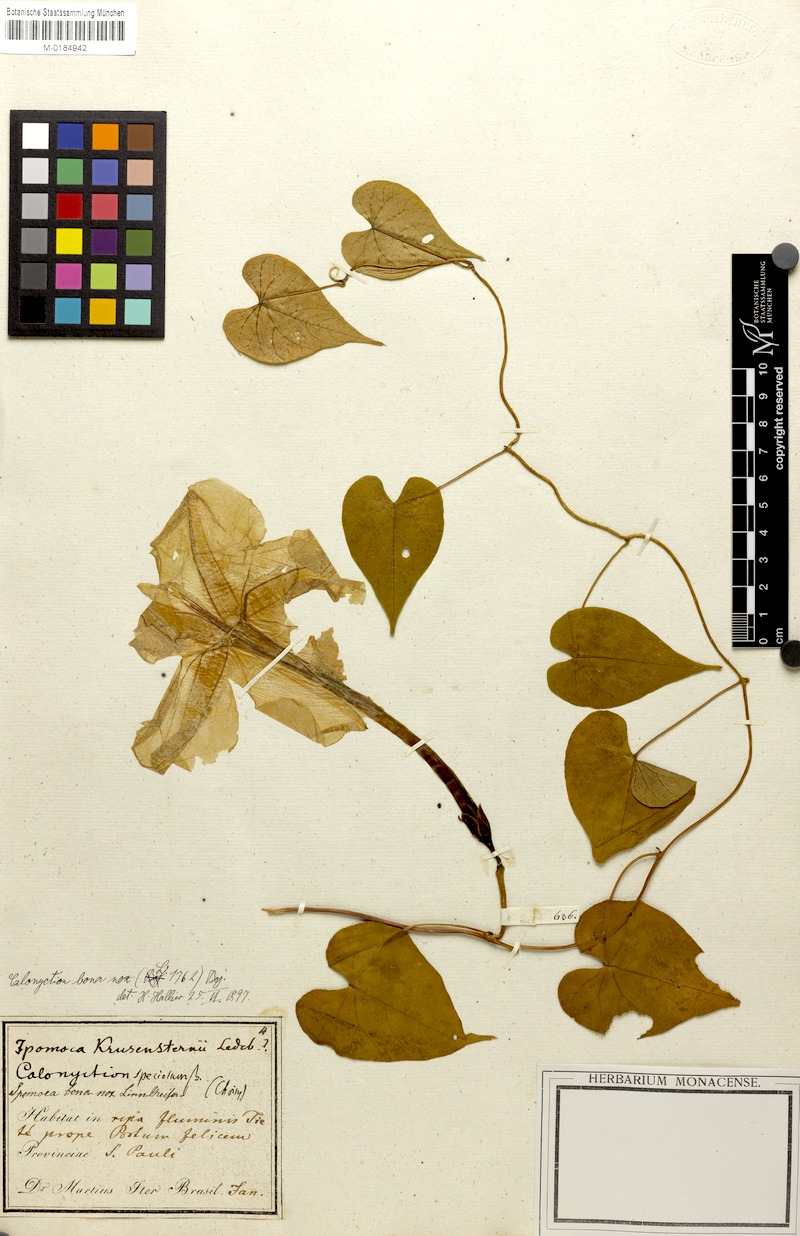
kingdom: Plantae
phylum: Tracheophyta
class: Magnoliopsida
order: Solanales
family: Convolvulaceae
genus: Ipomoea
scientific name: Ipomoea alba
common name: Moonflower
